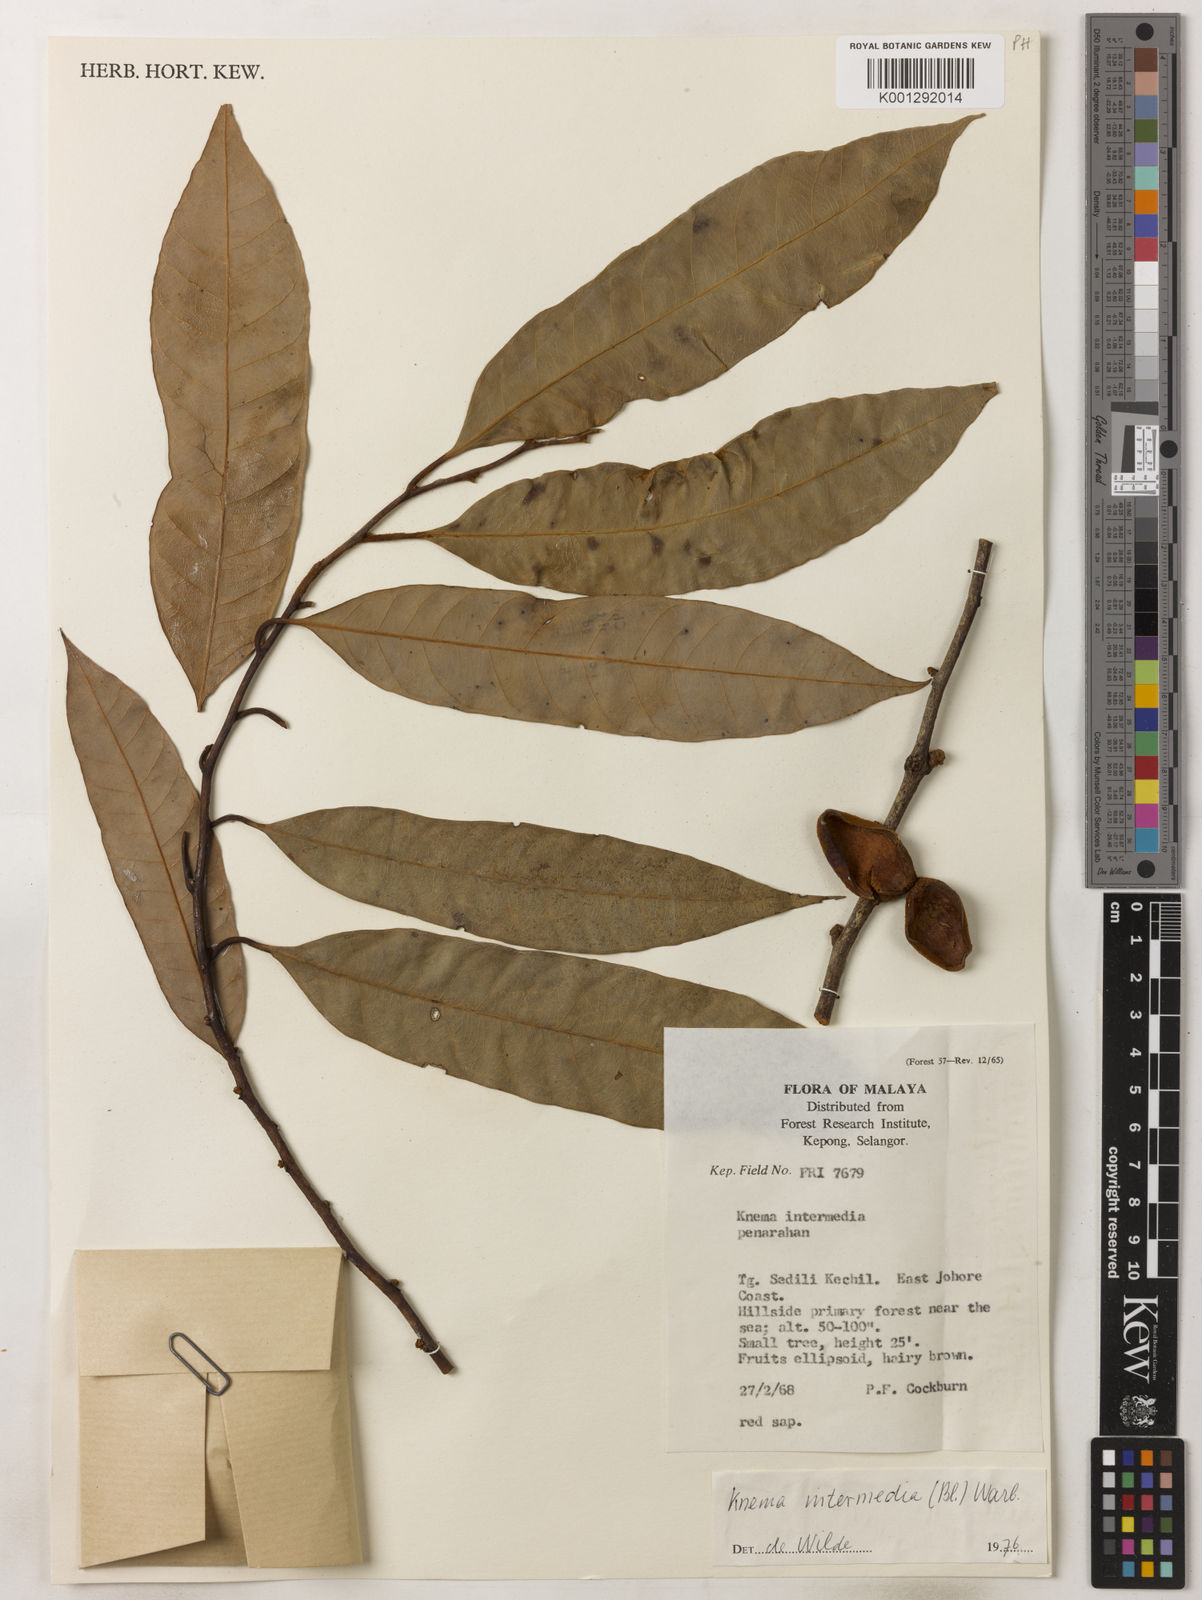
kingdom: Plantae
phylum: Tracheophyta
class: Magnoliopsida
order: Magnoliales
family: Myristicaceae
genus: Knema
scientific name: Knema intermedia
